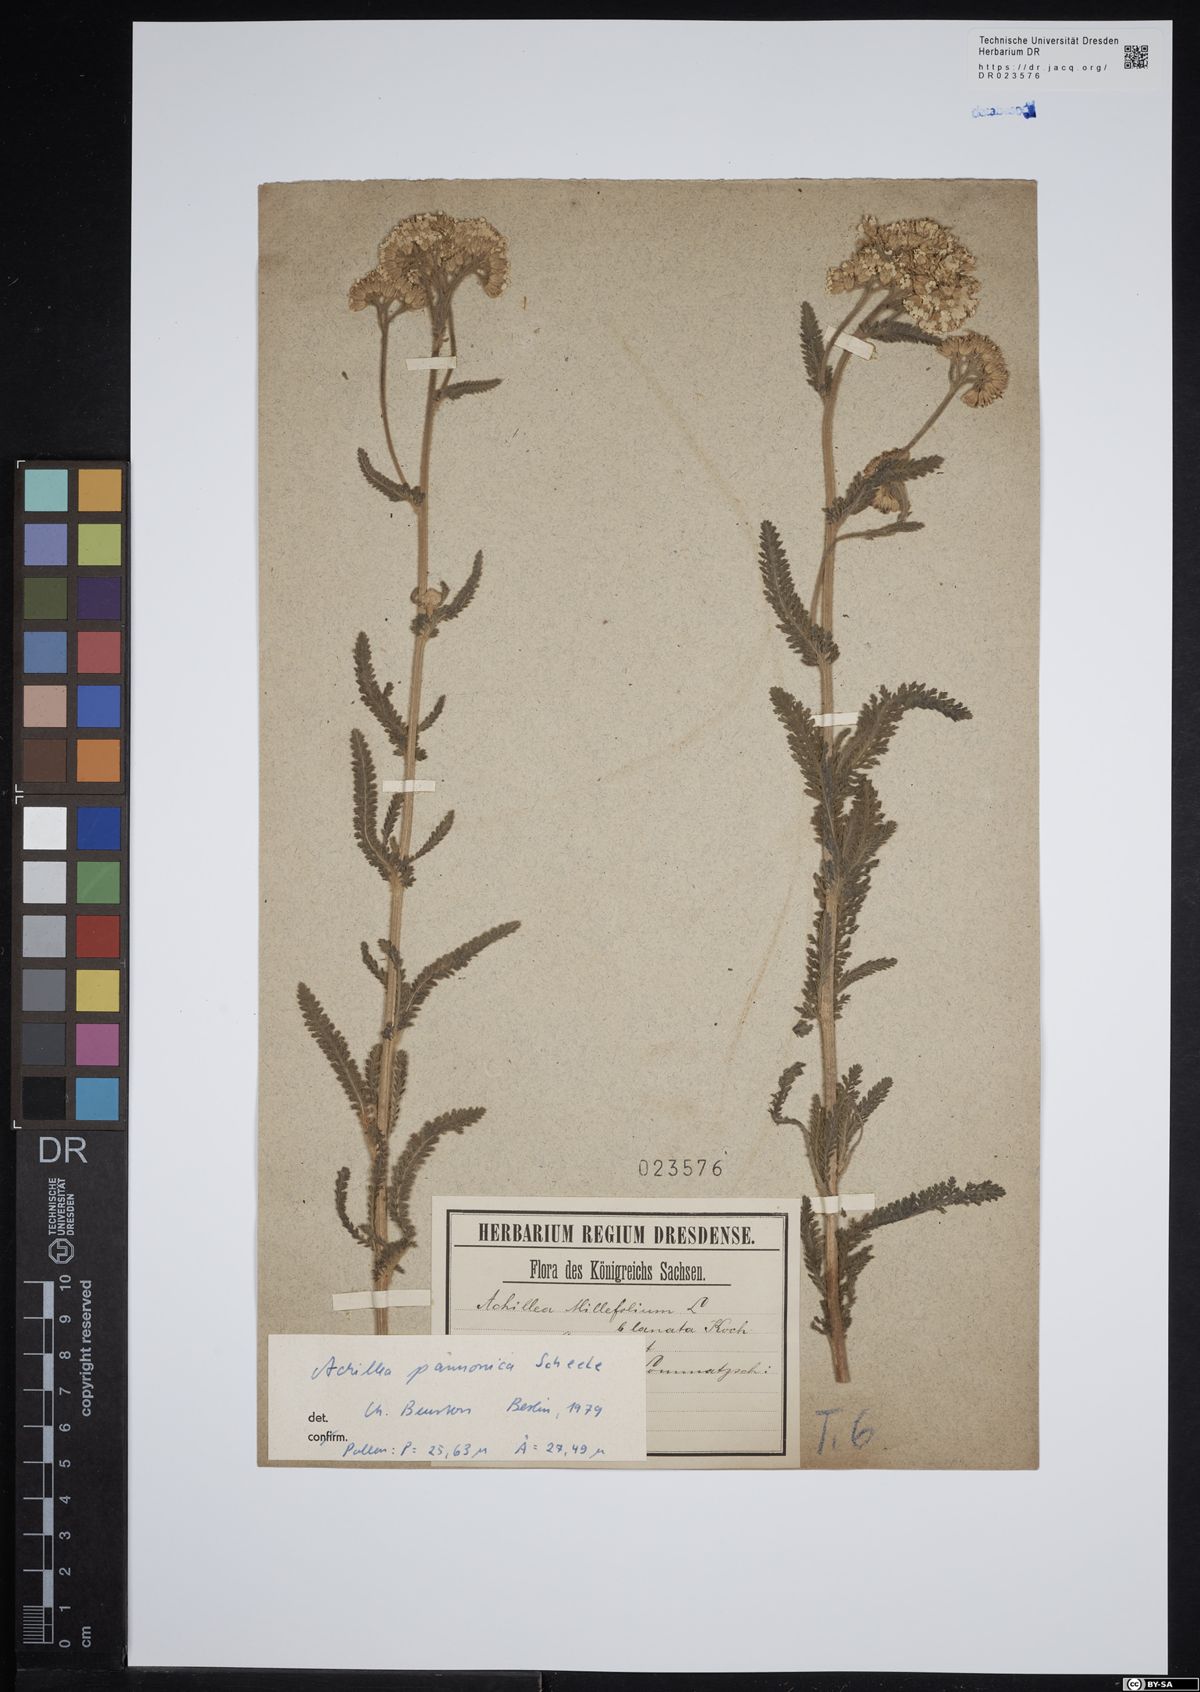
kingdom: Plantae
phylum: Tracheophyta
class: Magnoliopsida
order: Asterales
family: Asteraceae
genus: Achillea
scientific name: Achillea pannonica
